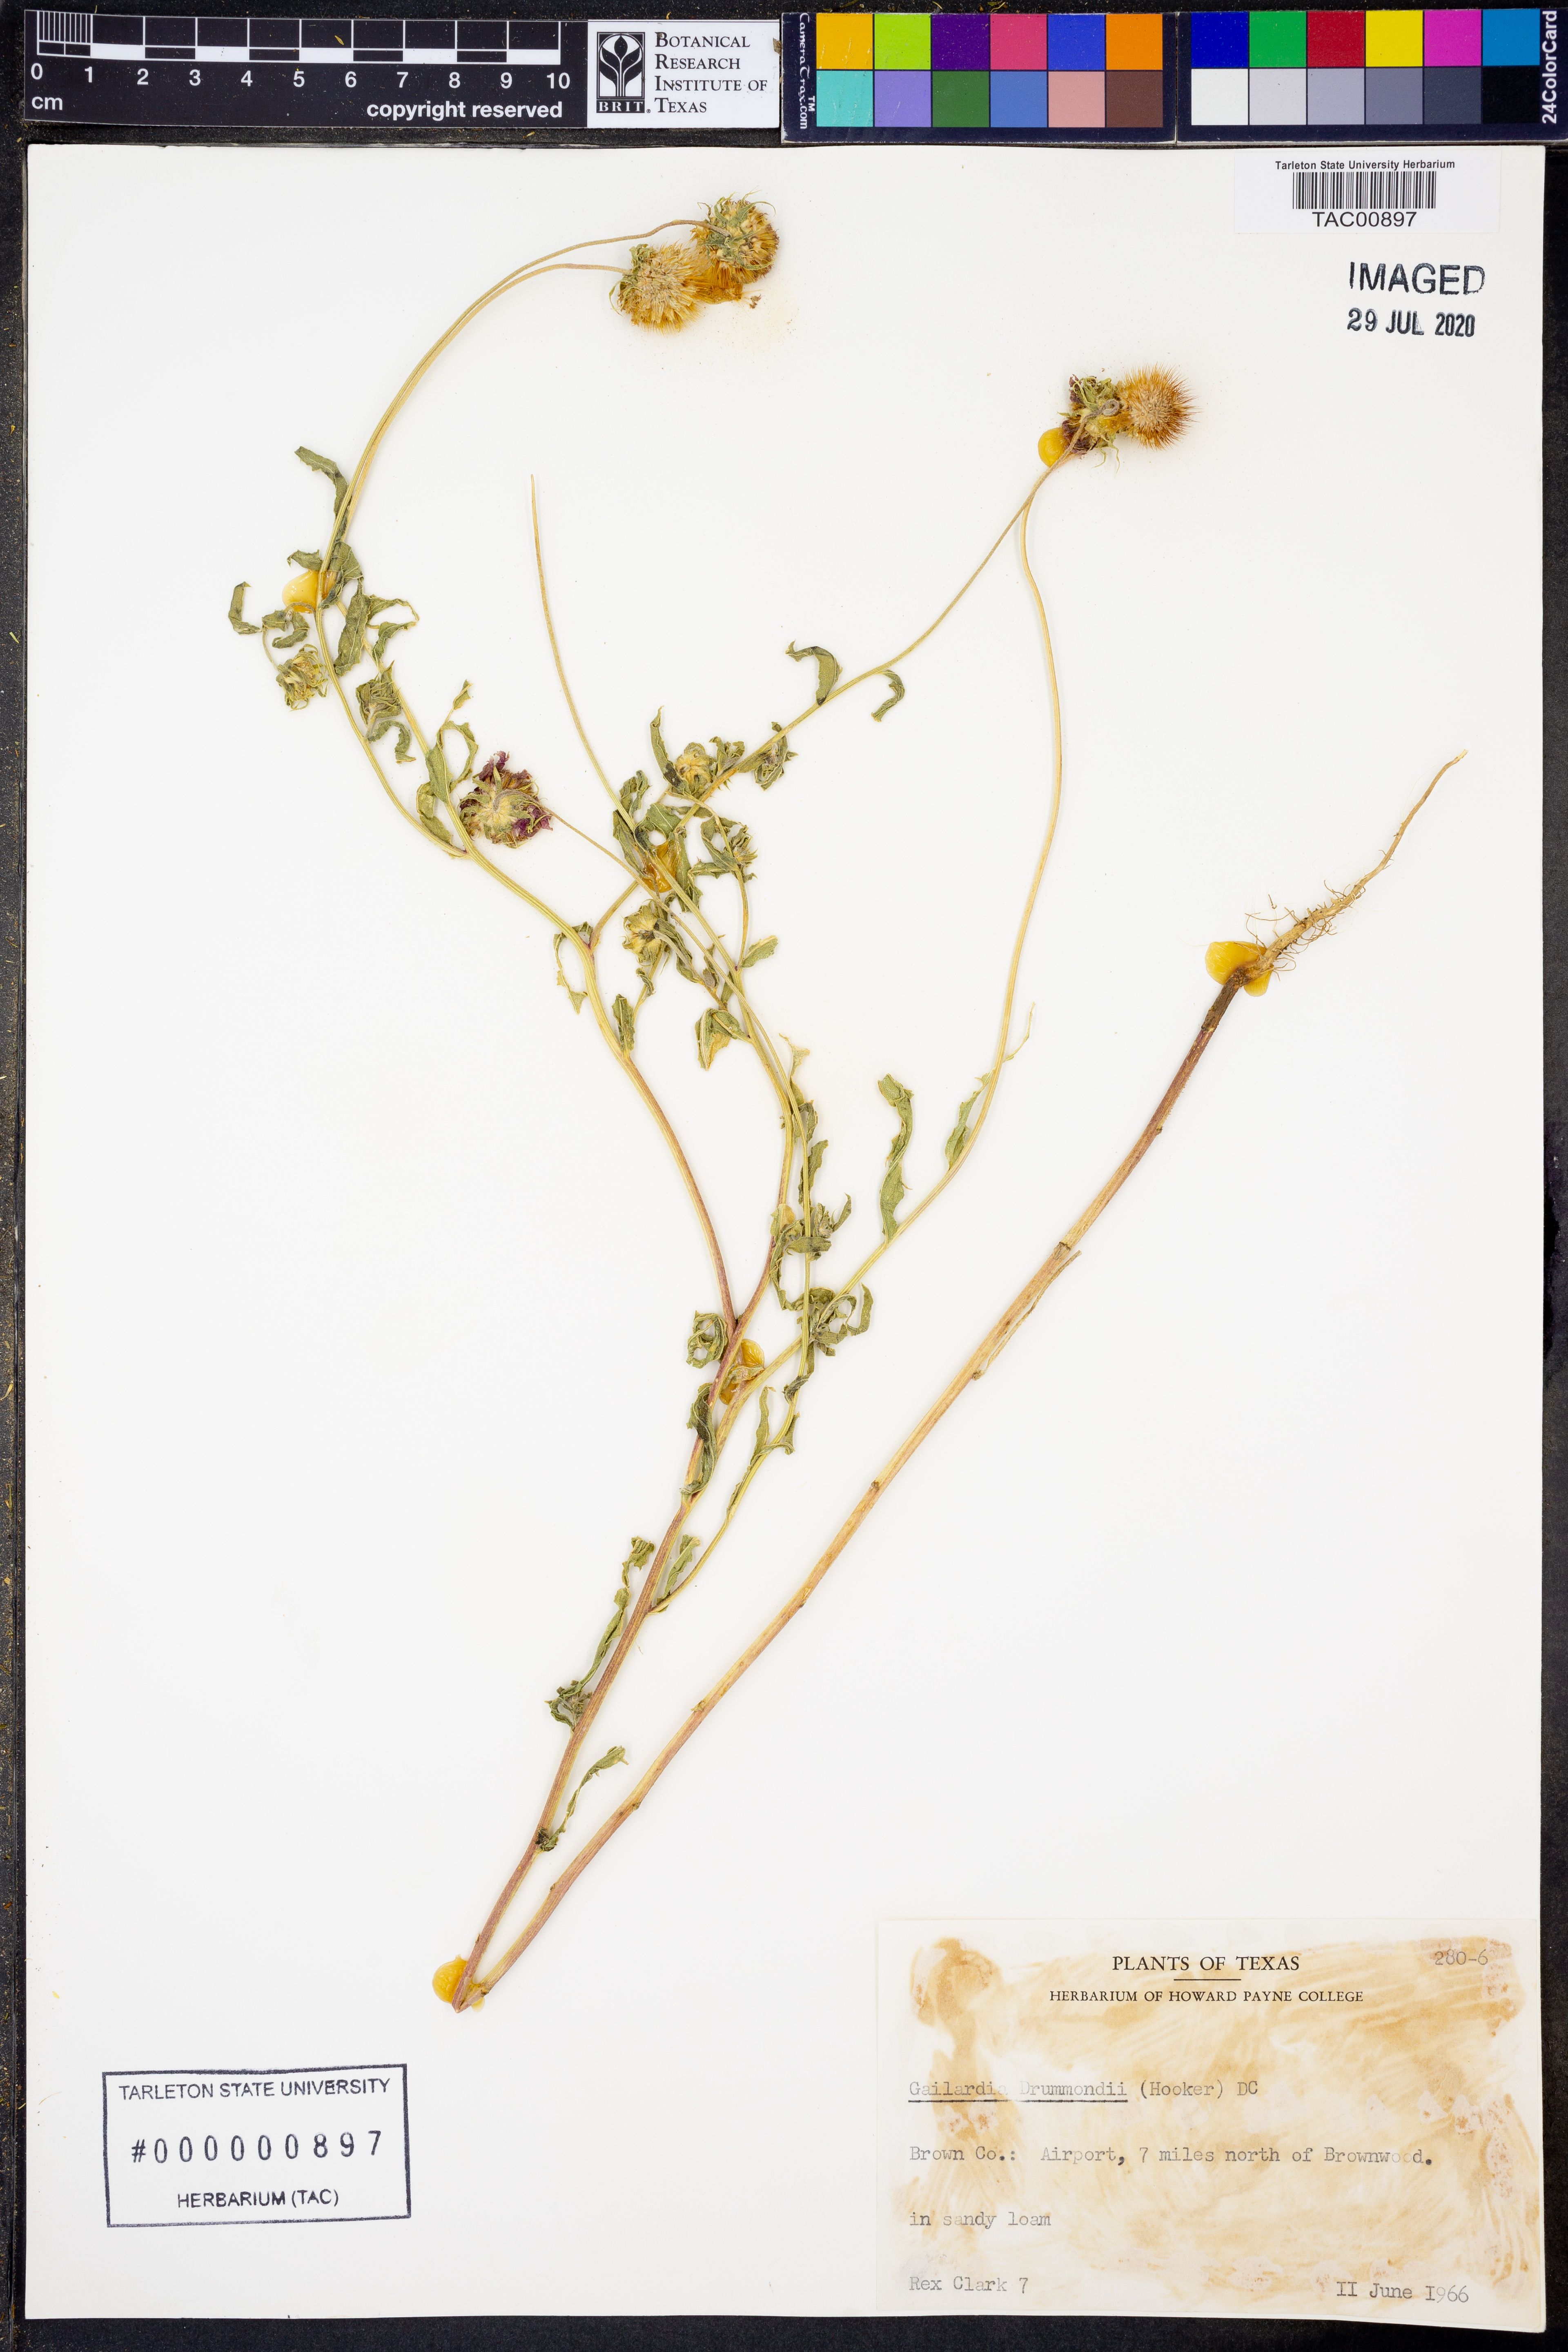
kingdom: Plantae
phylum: Tracheophyta
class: Magnoliopsida
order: Asterales
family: Asteraceae
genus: Gaillardia
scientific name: Gaillardia pulchella
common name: Firewheel
